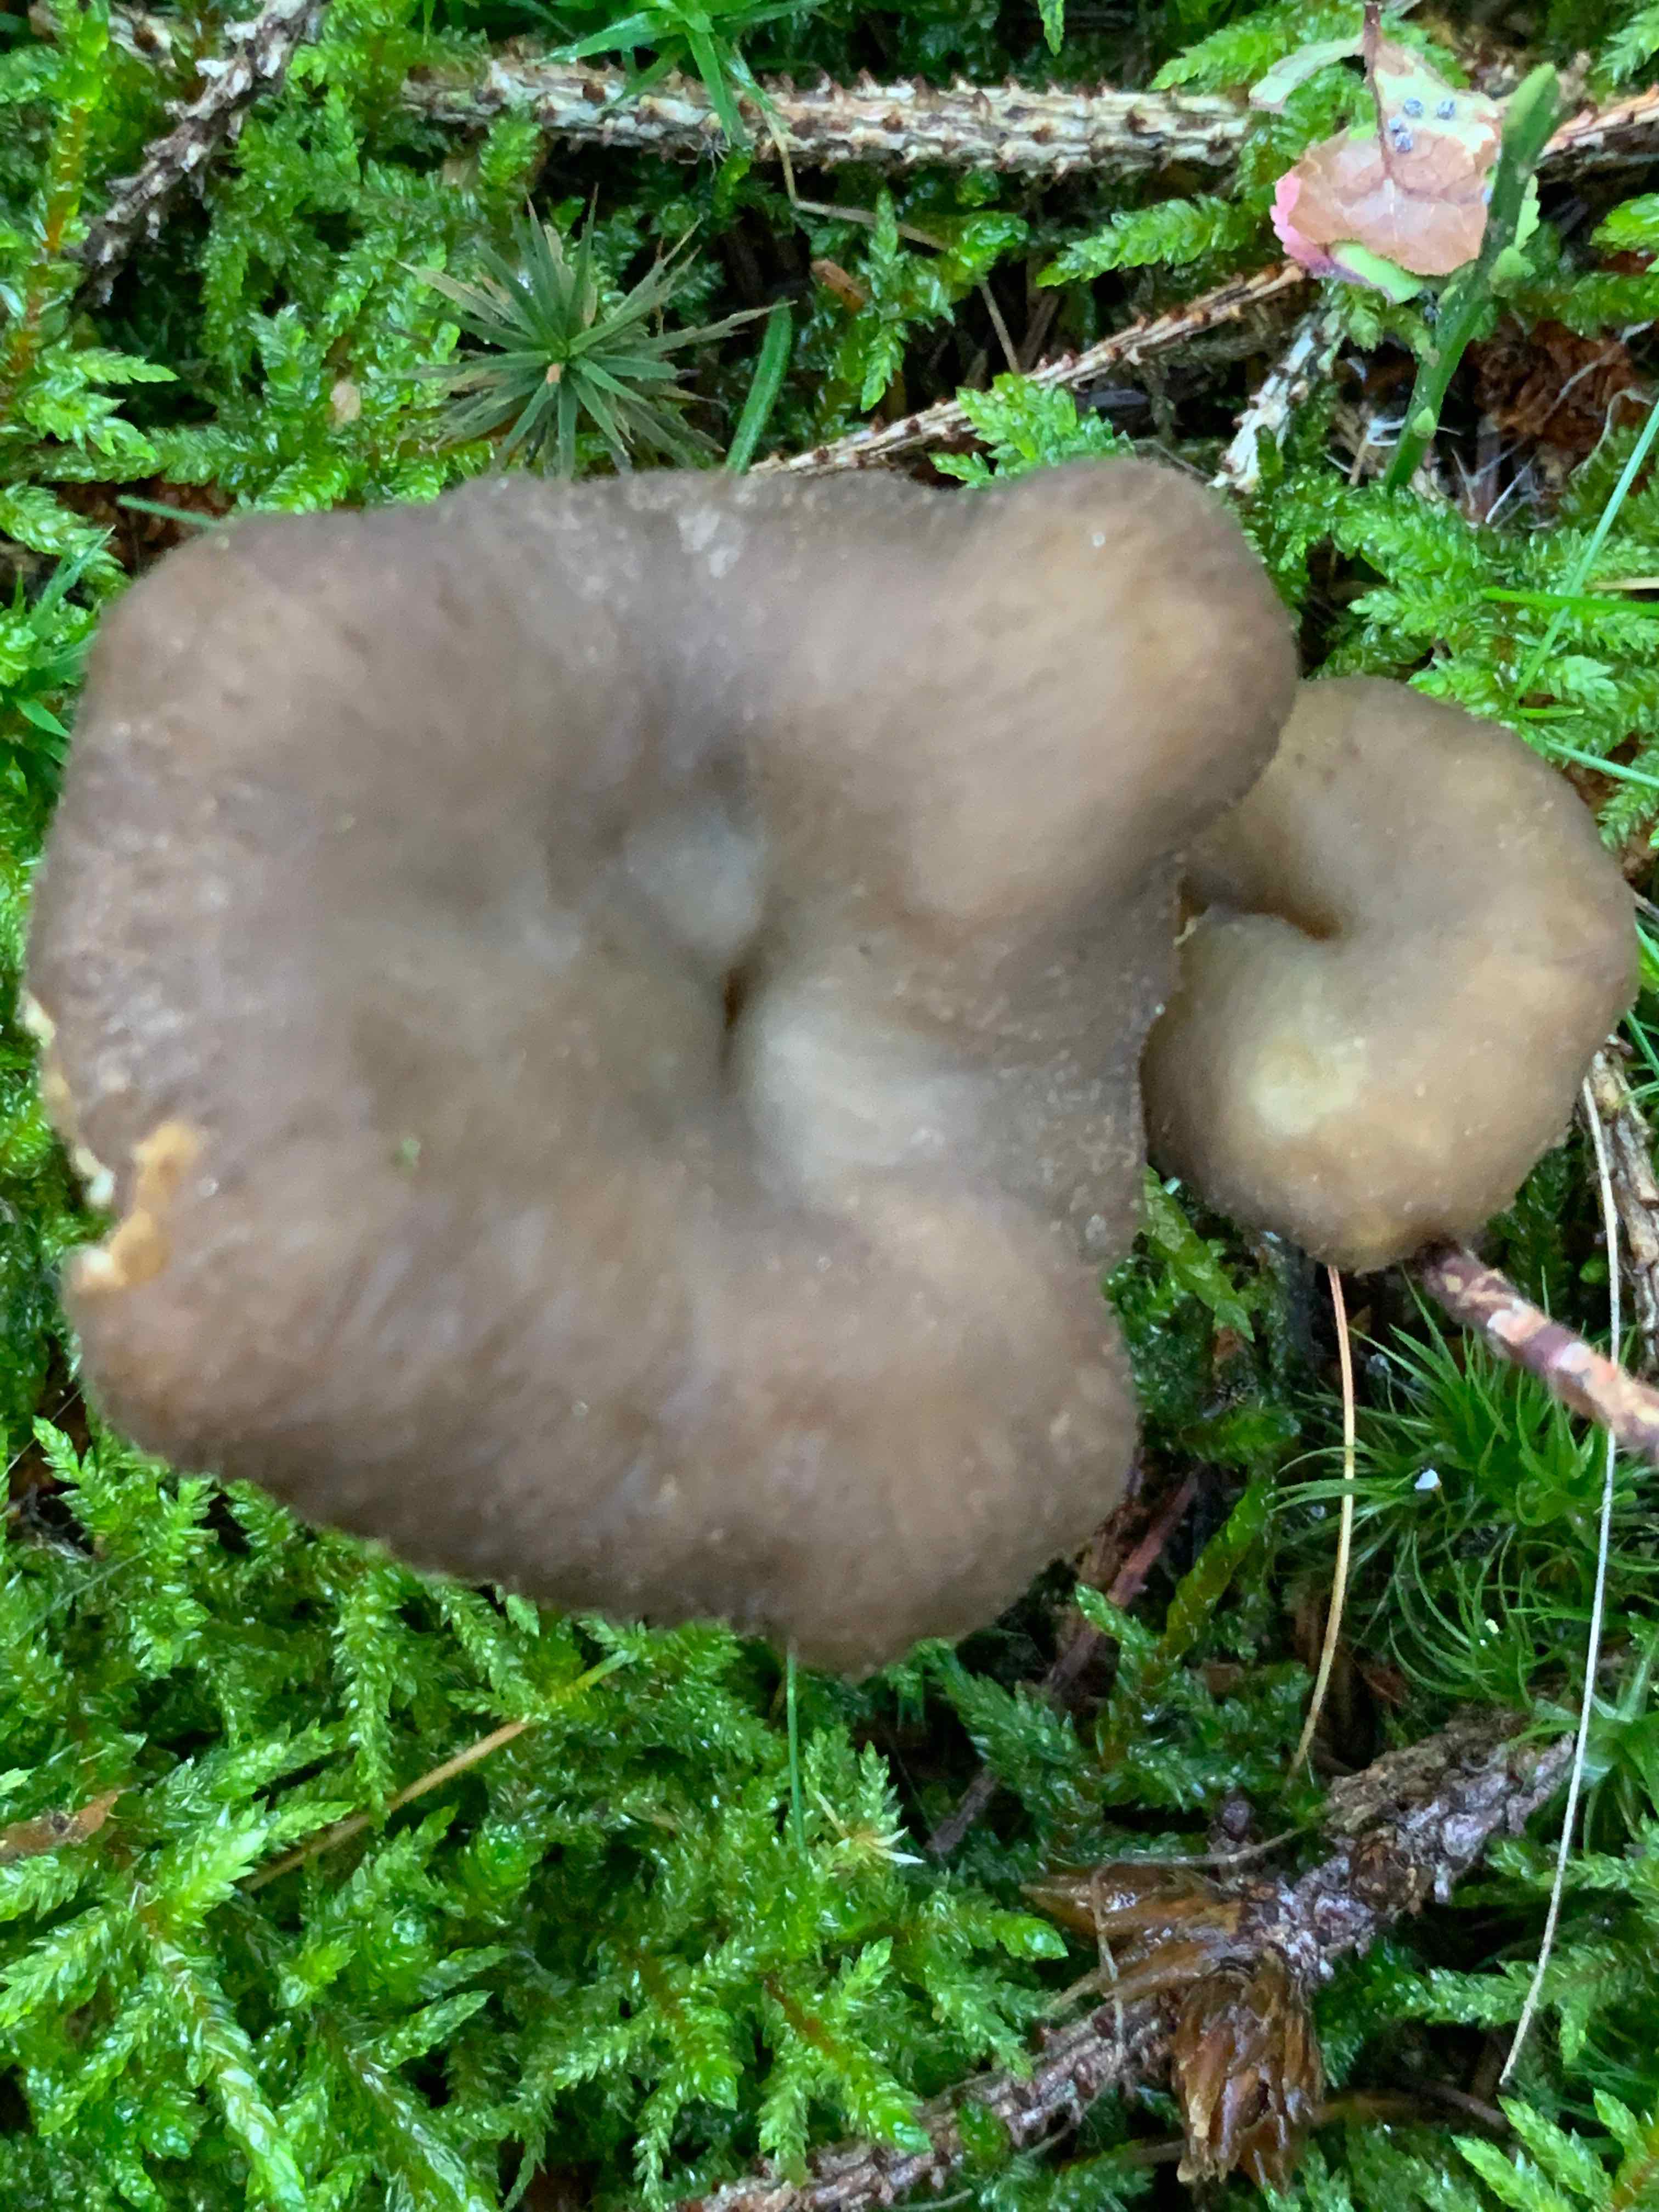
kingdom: Fungi
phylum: Basidiomycota
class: Agaricomycetes
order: Cantharellales
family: Hydnaceae
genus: Craterellus
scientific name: Craterellus tubaeformis
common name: tragt-kantarel
